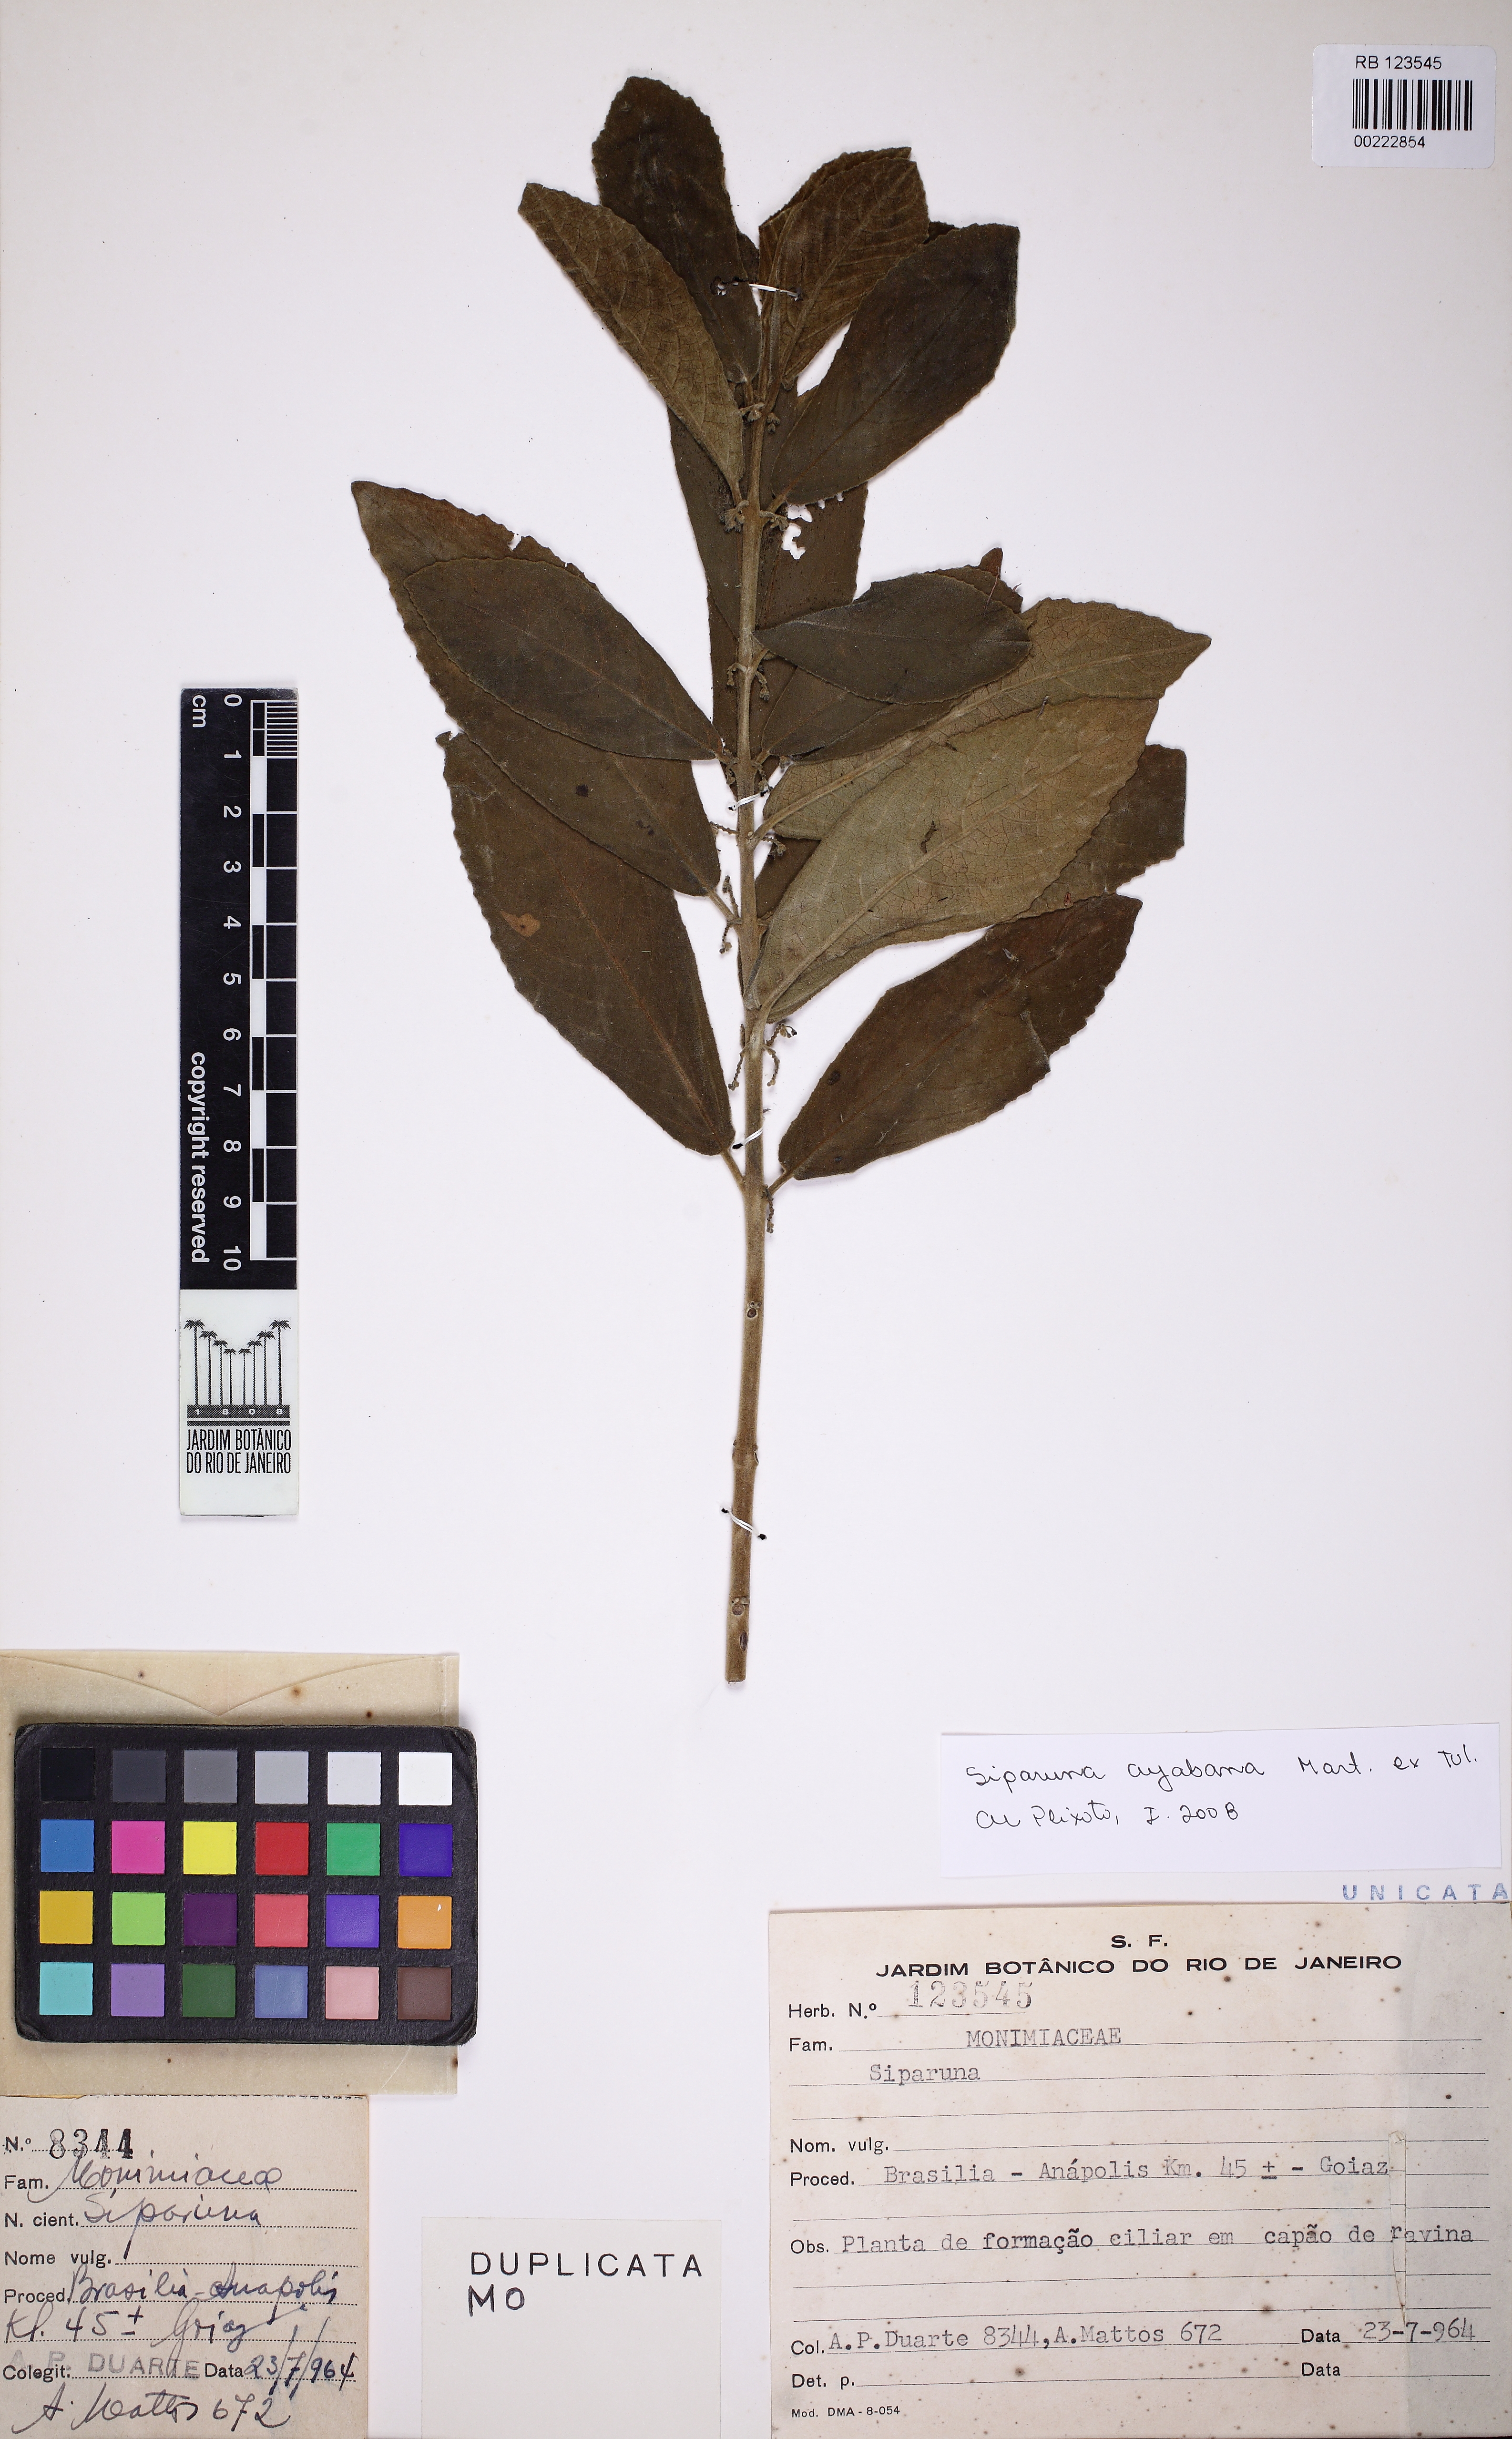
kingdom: Plantae
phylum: Tracheophyta
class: Magnoliopsida
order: Laurales
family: Siparunaceae
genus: Siparuna
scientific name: Siparuna brasiliensis
